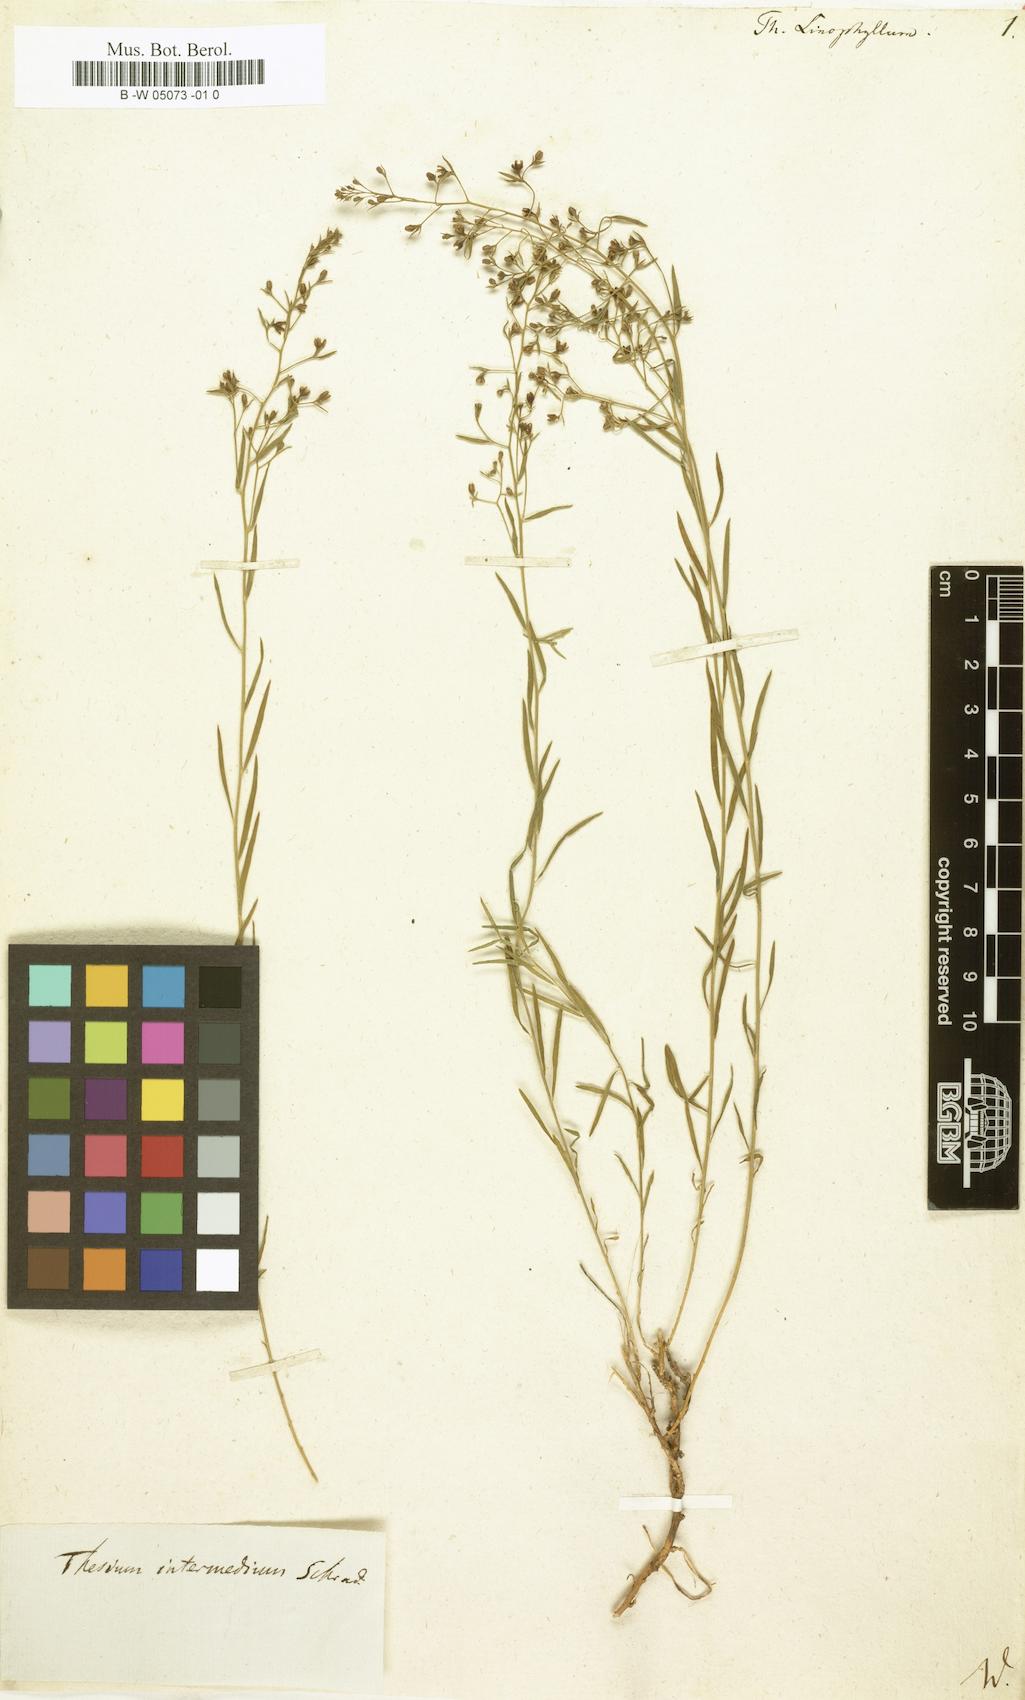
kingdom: Plantae
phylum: Tracheophyta
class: Magnoliopsida
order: Santalales
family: Thesiaceae
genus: Thesium
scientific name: Thesium linophyllon
